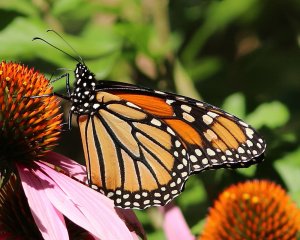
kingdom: Animalia
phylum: Arthropoda
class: Insecta
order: Lepidoptera
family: Nymphalidae
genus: Danaus
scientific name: Danaus plexippus
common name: Monarch
